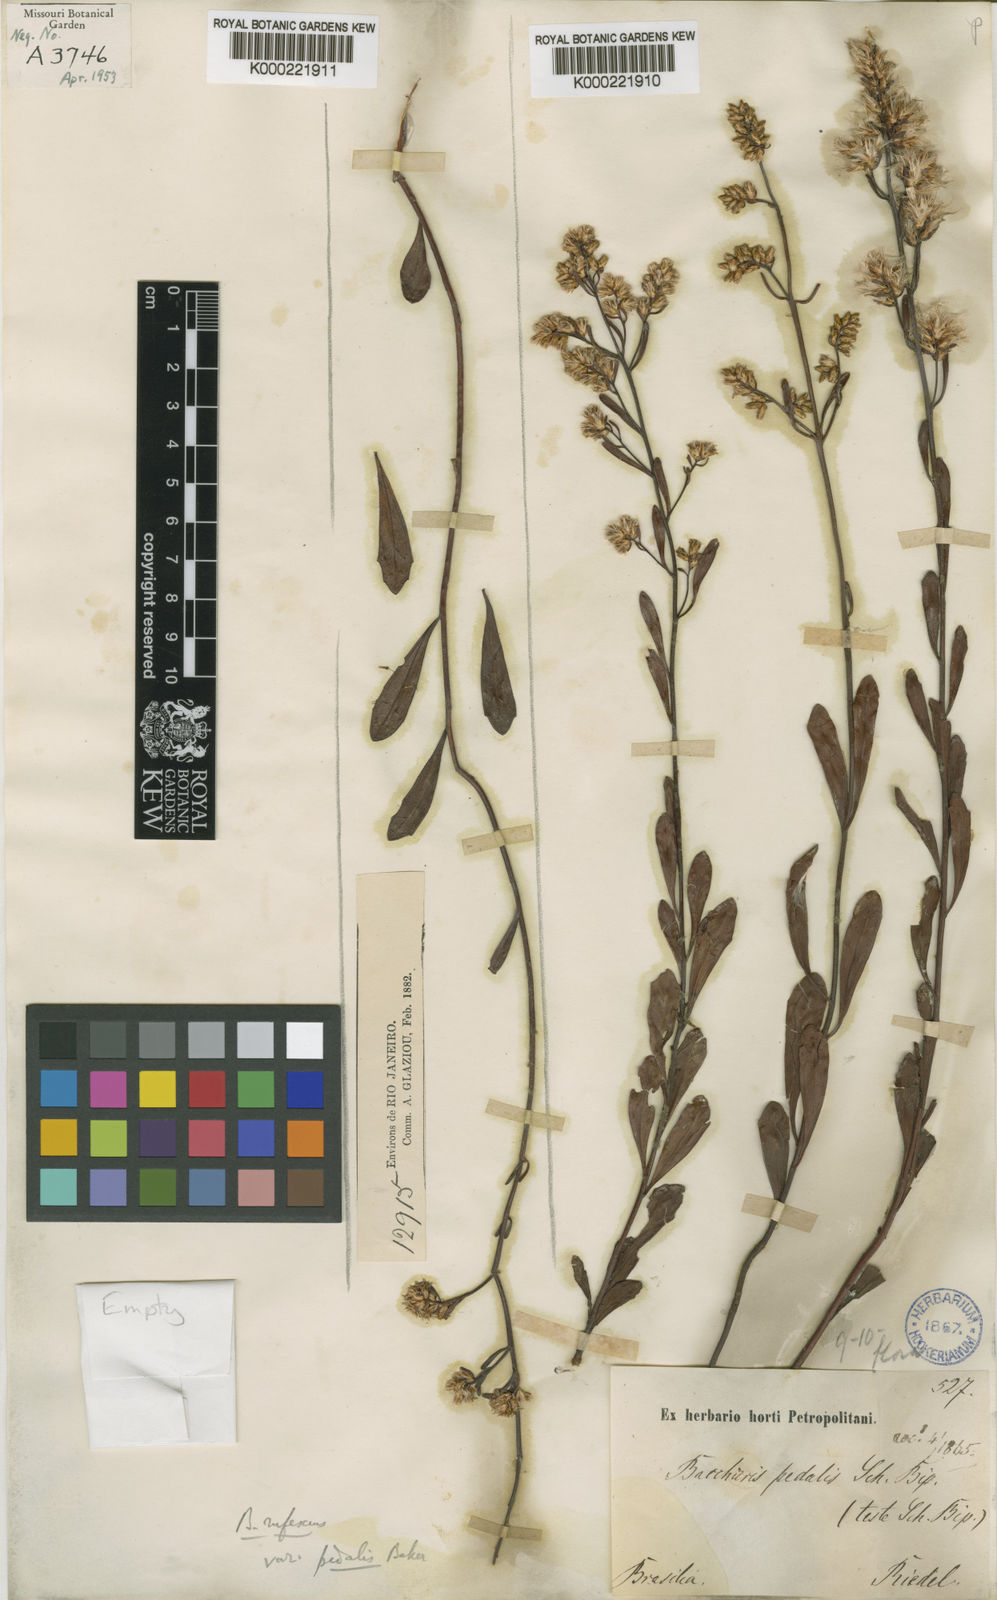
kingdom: Plantae
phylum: Tracheophyta
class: Magnoliopsida
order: Asterales
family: Asteraceae
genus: Baccharis
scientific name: Baccharis rufescens
